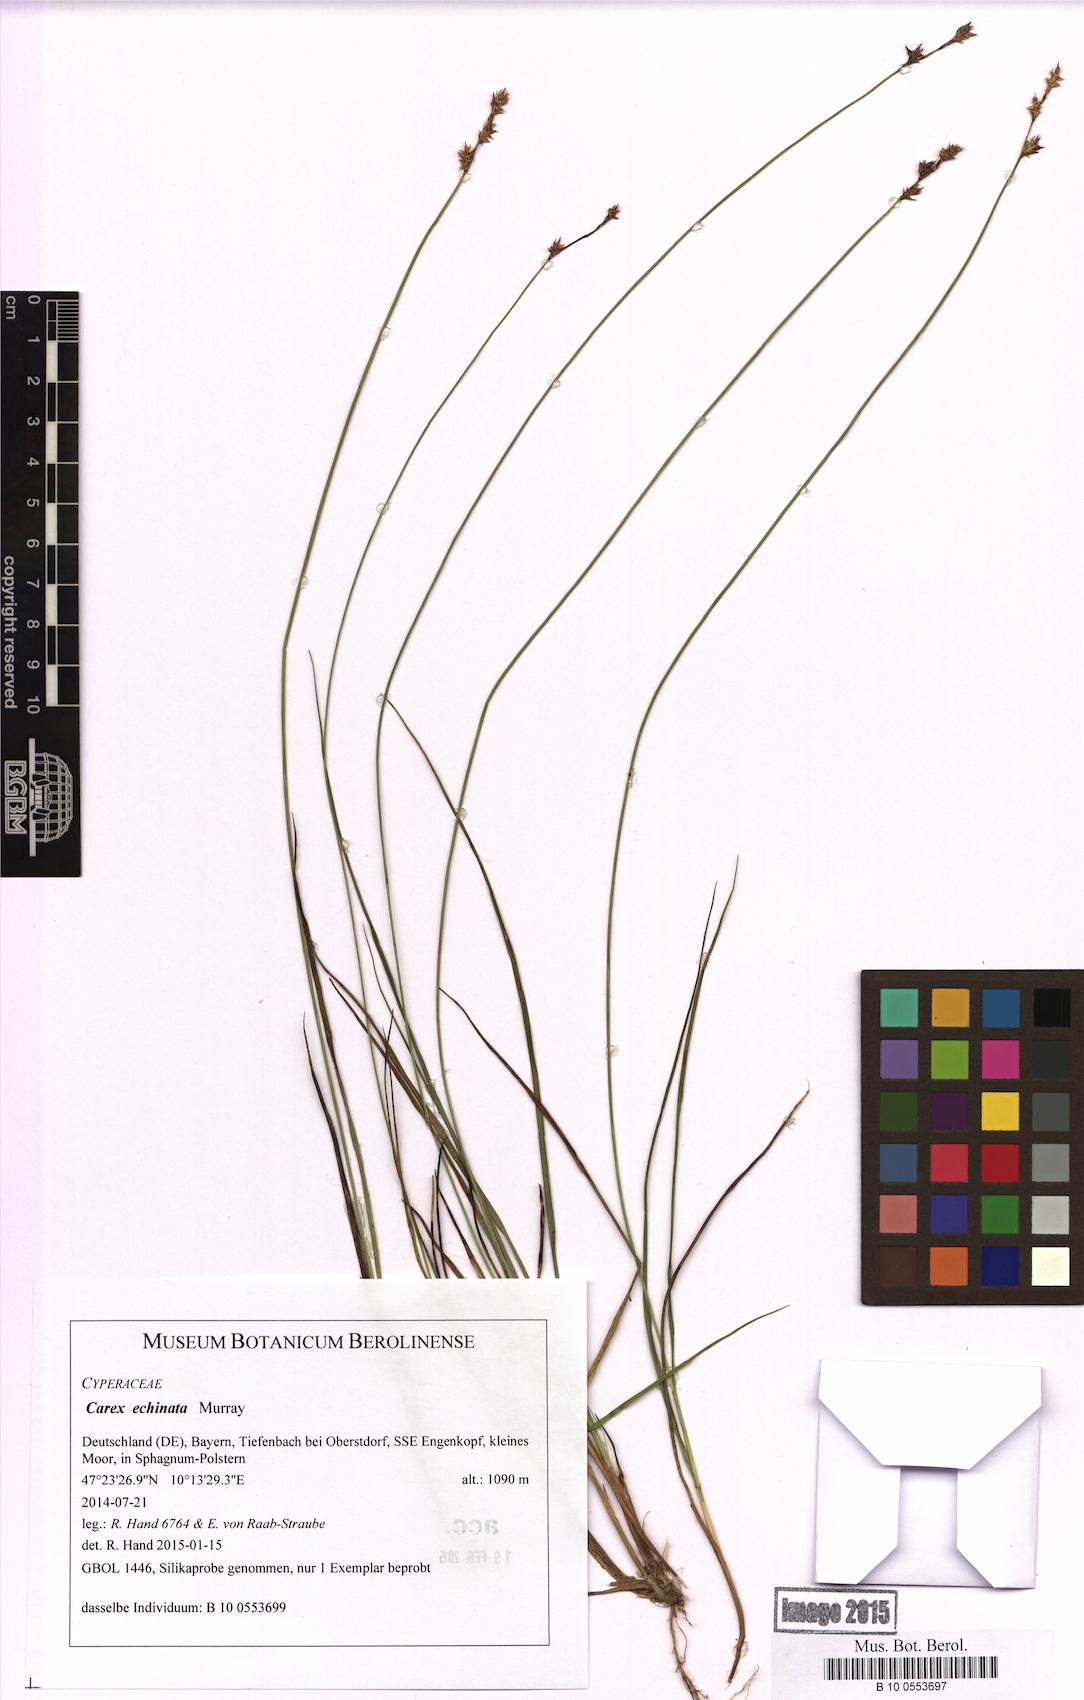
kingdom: Plantae
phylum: Tracheophyta
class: Liliopsida
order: Poales
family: Cyperaceae
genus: Carex
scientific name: Carex echinata
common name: Star sedge
